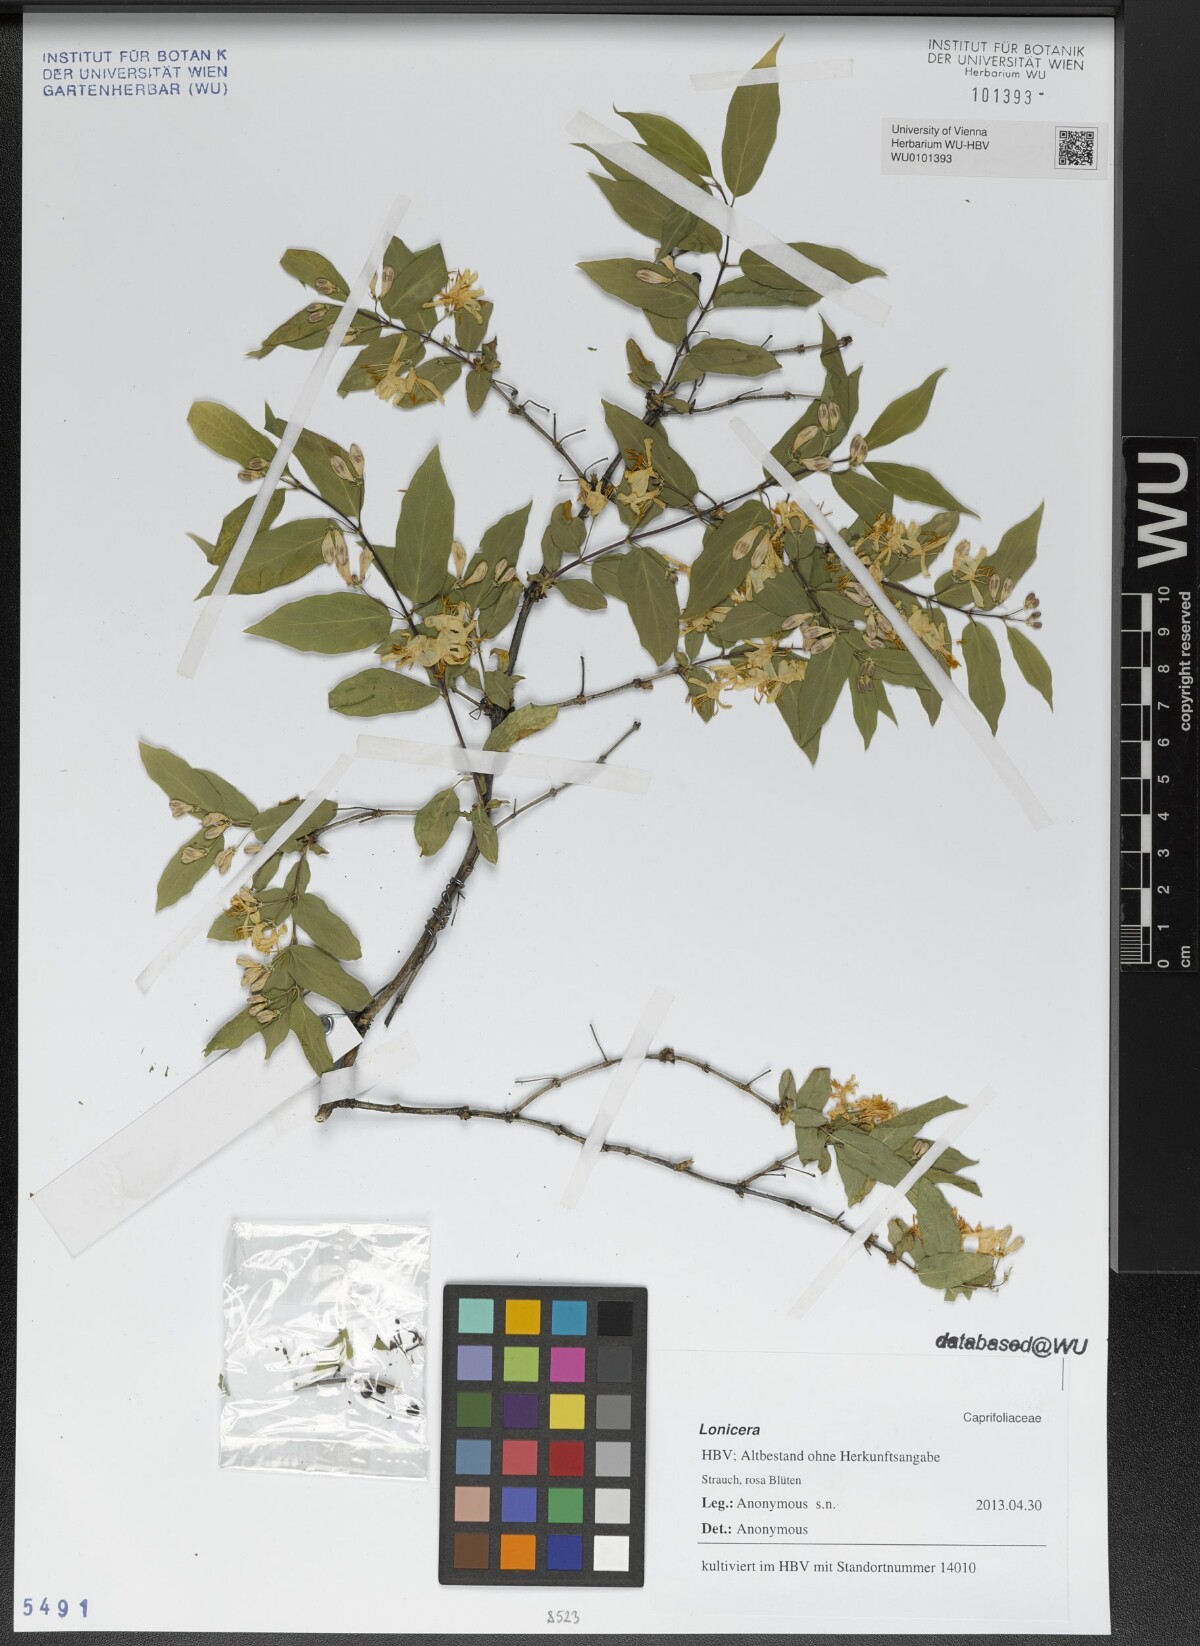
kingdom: Plantae
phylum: Tracheophyta
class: Magnoliopsida
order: Dipsacales
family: Caprifoliaceae
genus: Lonicera
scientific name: Lonicera
